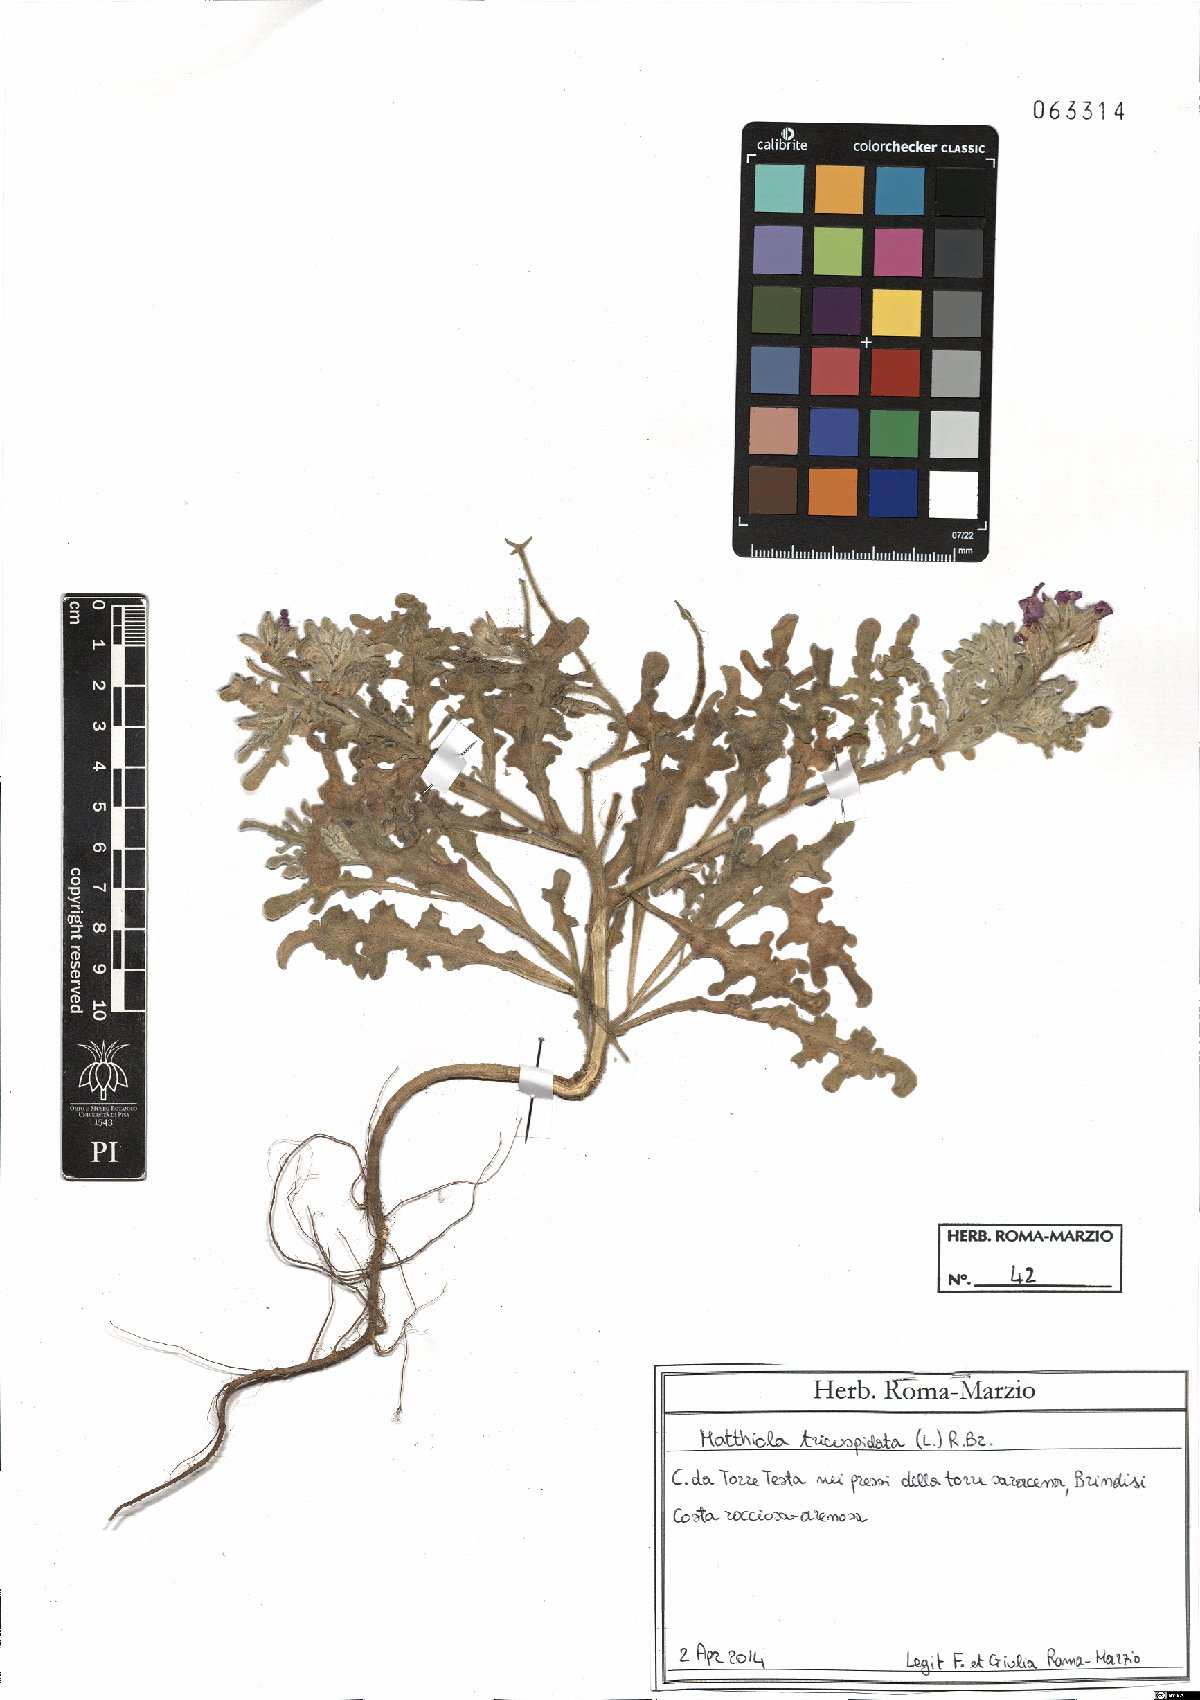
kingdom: Plantae
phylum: Tracheophyta
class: Magnoliopsida
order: Brassicales
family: Brassicaceae
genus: Matthiola
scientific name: Matthiola tricuspidata
